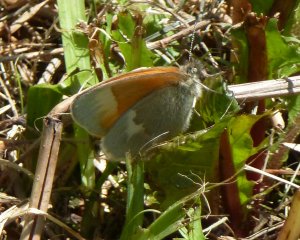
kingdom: Animalia
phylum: Arthropoda
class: Insecta
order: Lepidoptera
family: Nymphalidae
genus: Coenonympha
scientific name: Coenonympha tullia
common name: Large Heath
